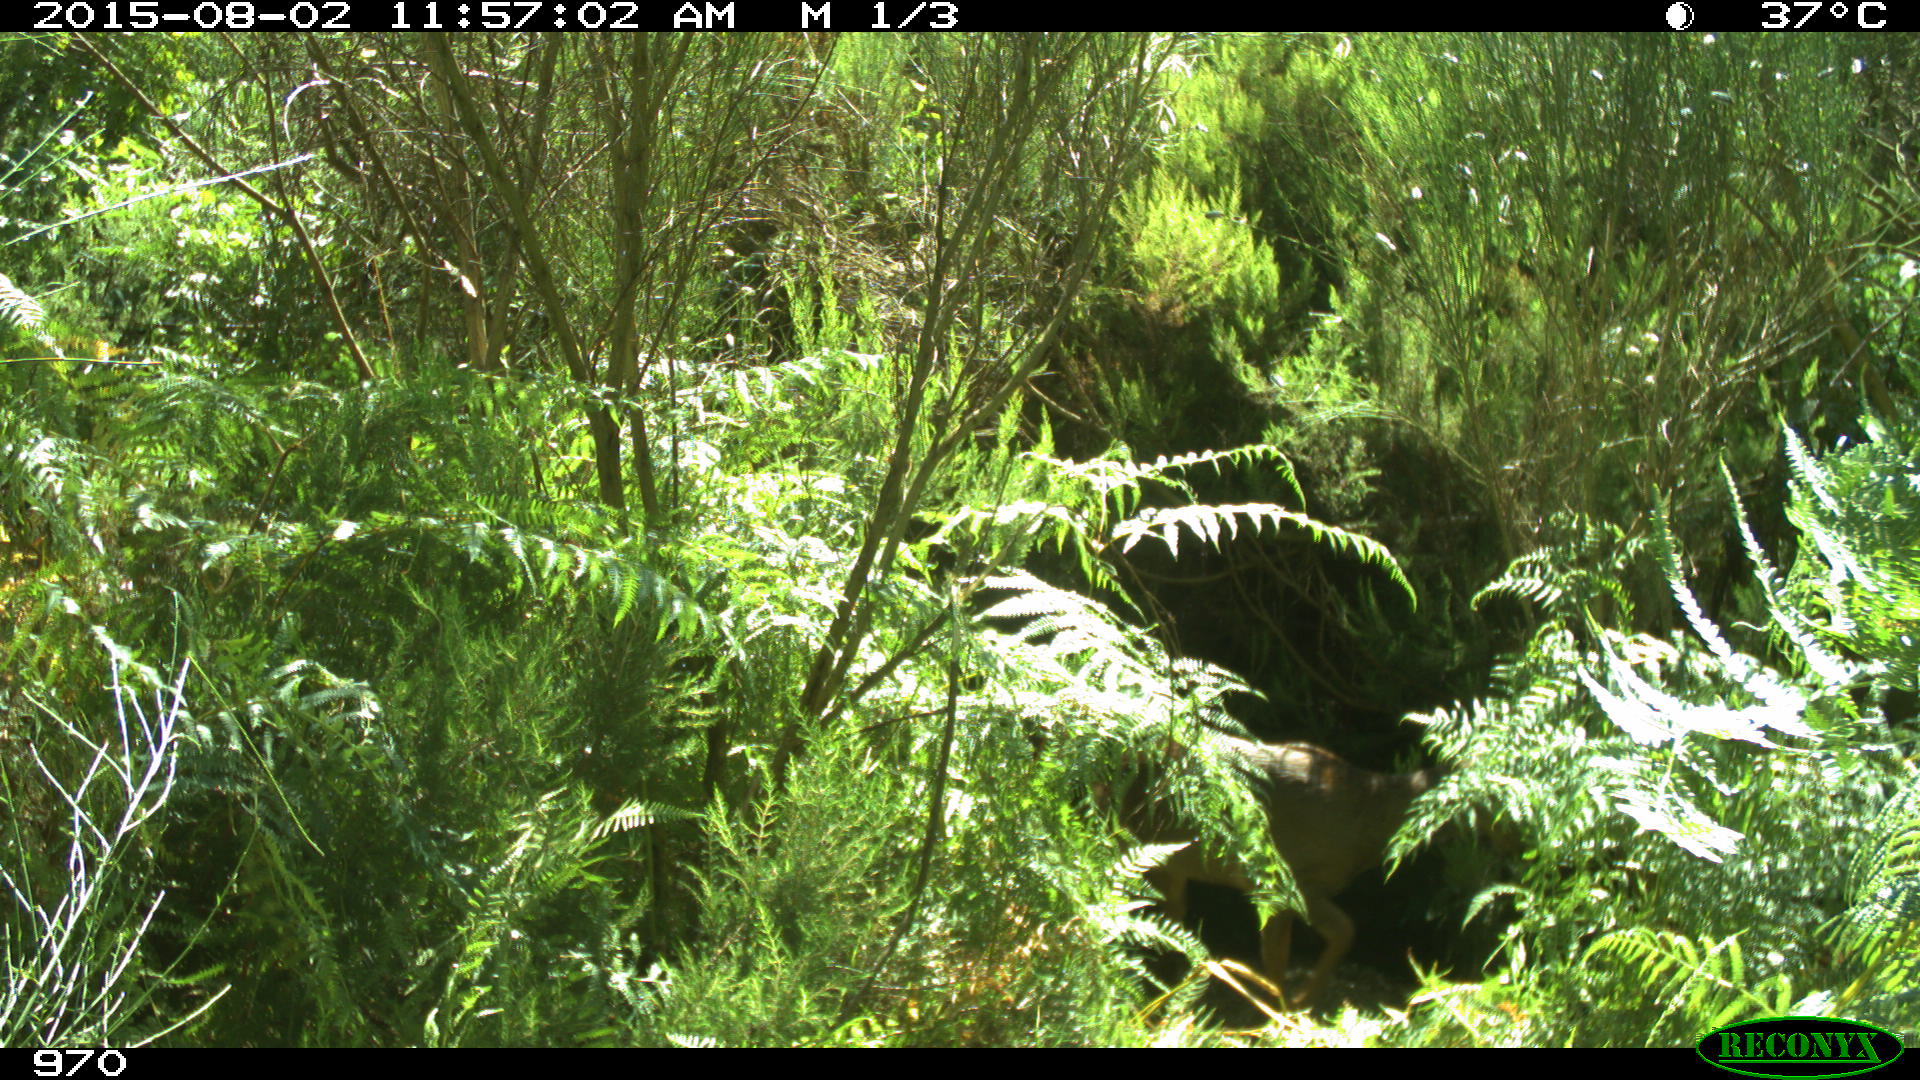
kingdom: Animalia
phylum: Chordata
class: Mammalia
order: Artiodactyla
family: Cervidae
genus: Capreolus
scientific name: Capreolus capreolus
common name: Western roe deer
